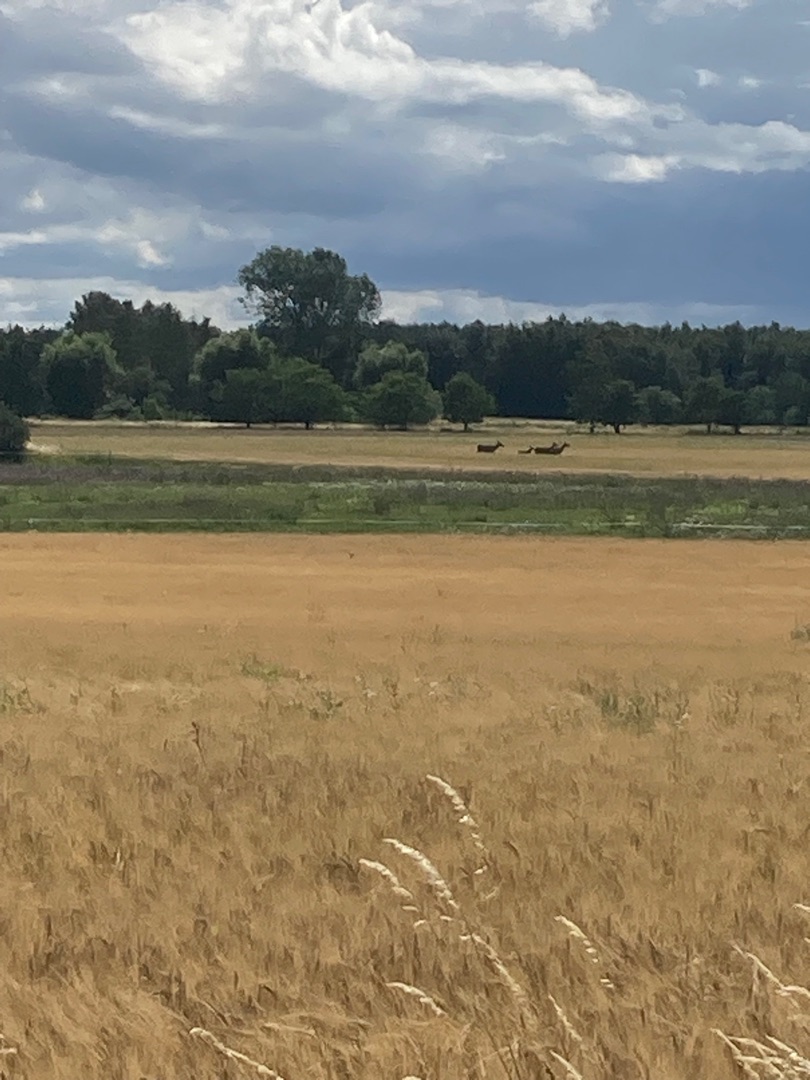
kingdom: Animalia
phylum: Chordata
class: Mammalia
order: Artiodactyla
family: Cervidae
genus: Cervus
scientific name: Cervus elaphus
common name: Krondyr
